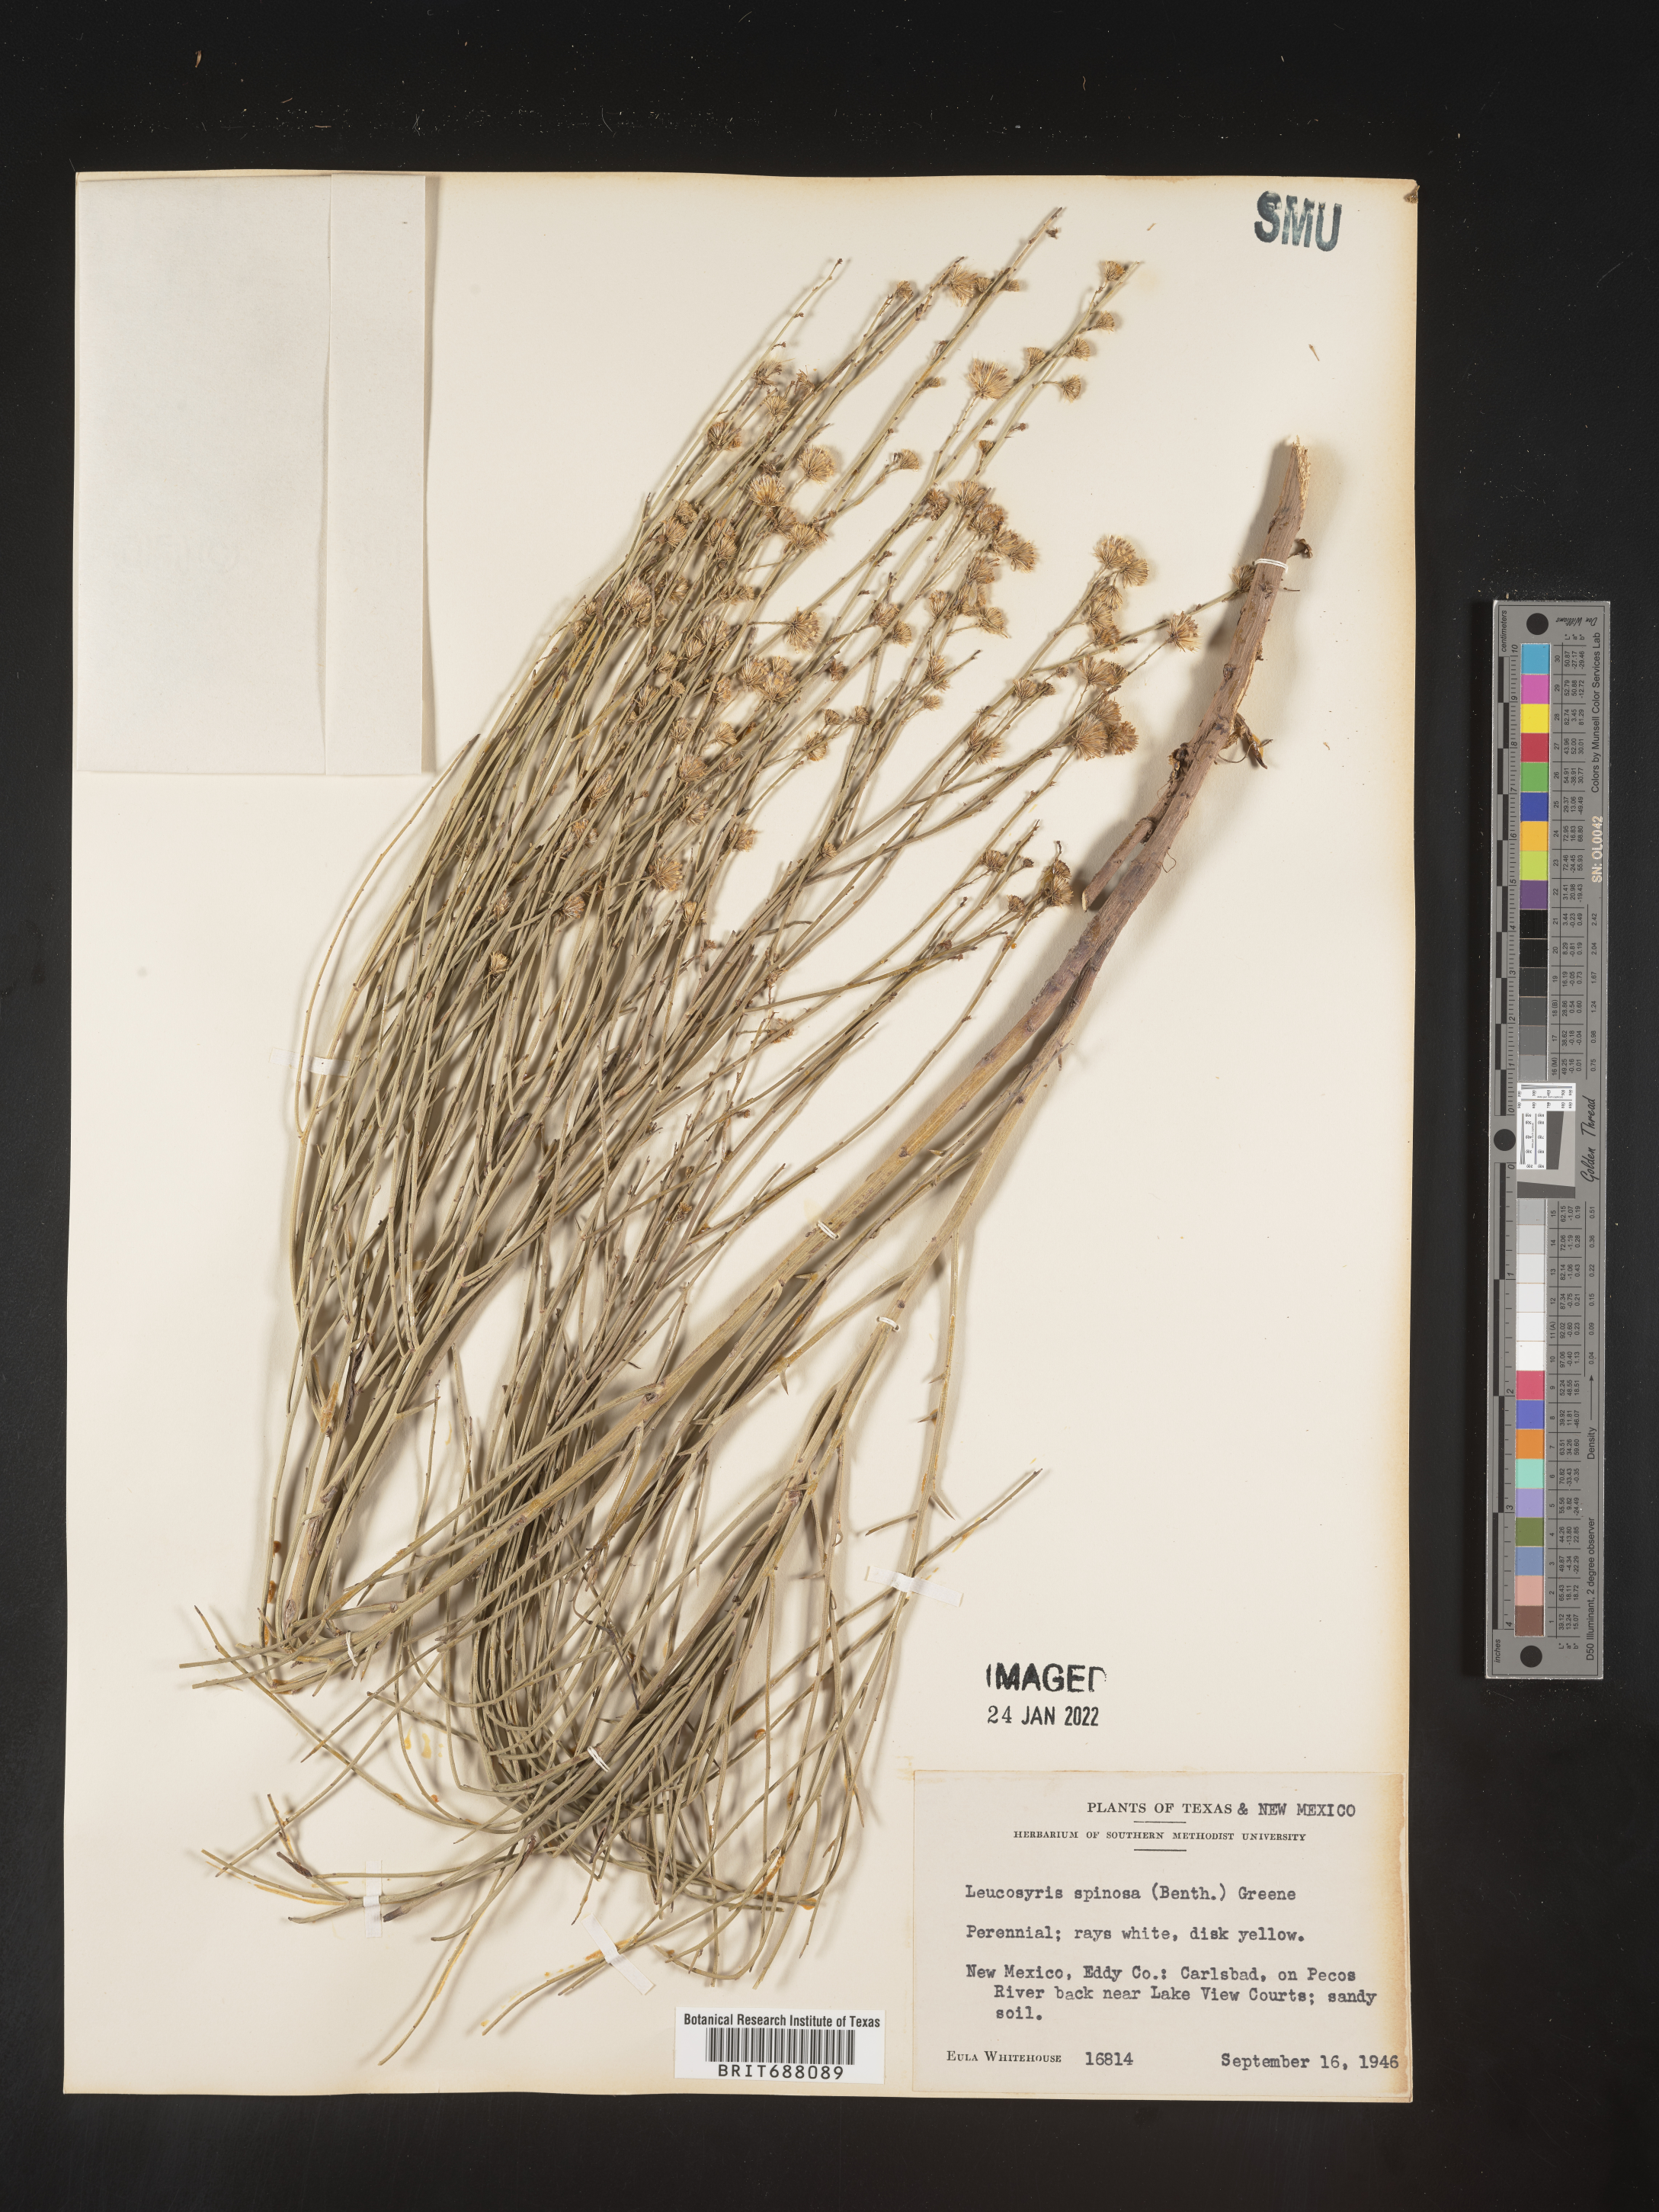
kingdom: Plantae
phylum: Tracheophyta
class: Magnoliopsida
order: Asterales
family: Asteraceae
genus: Chloracantha
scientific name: Chloracantha spinosa
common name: Mexican devilweed
